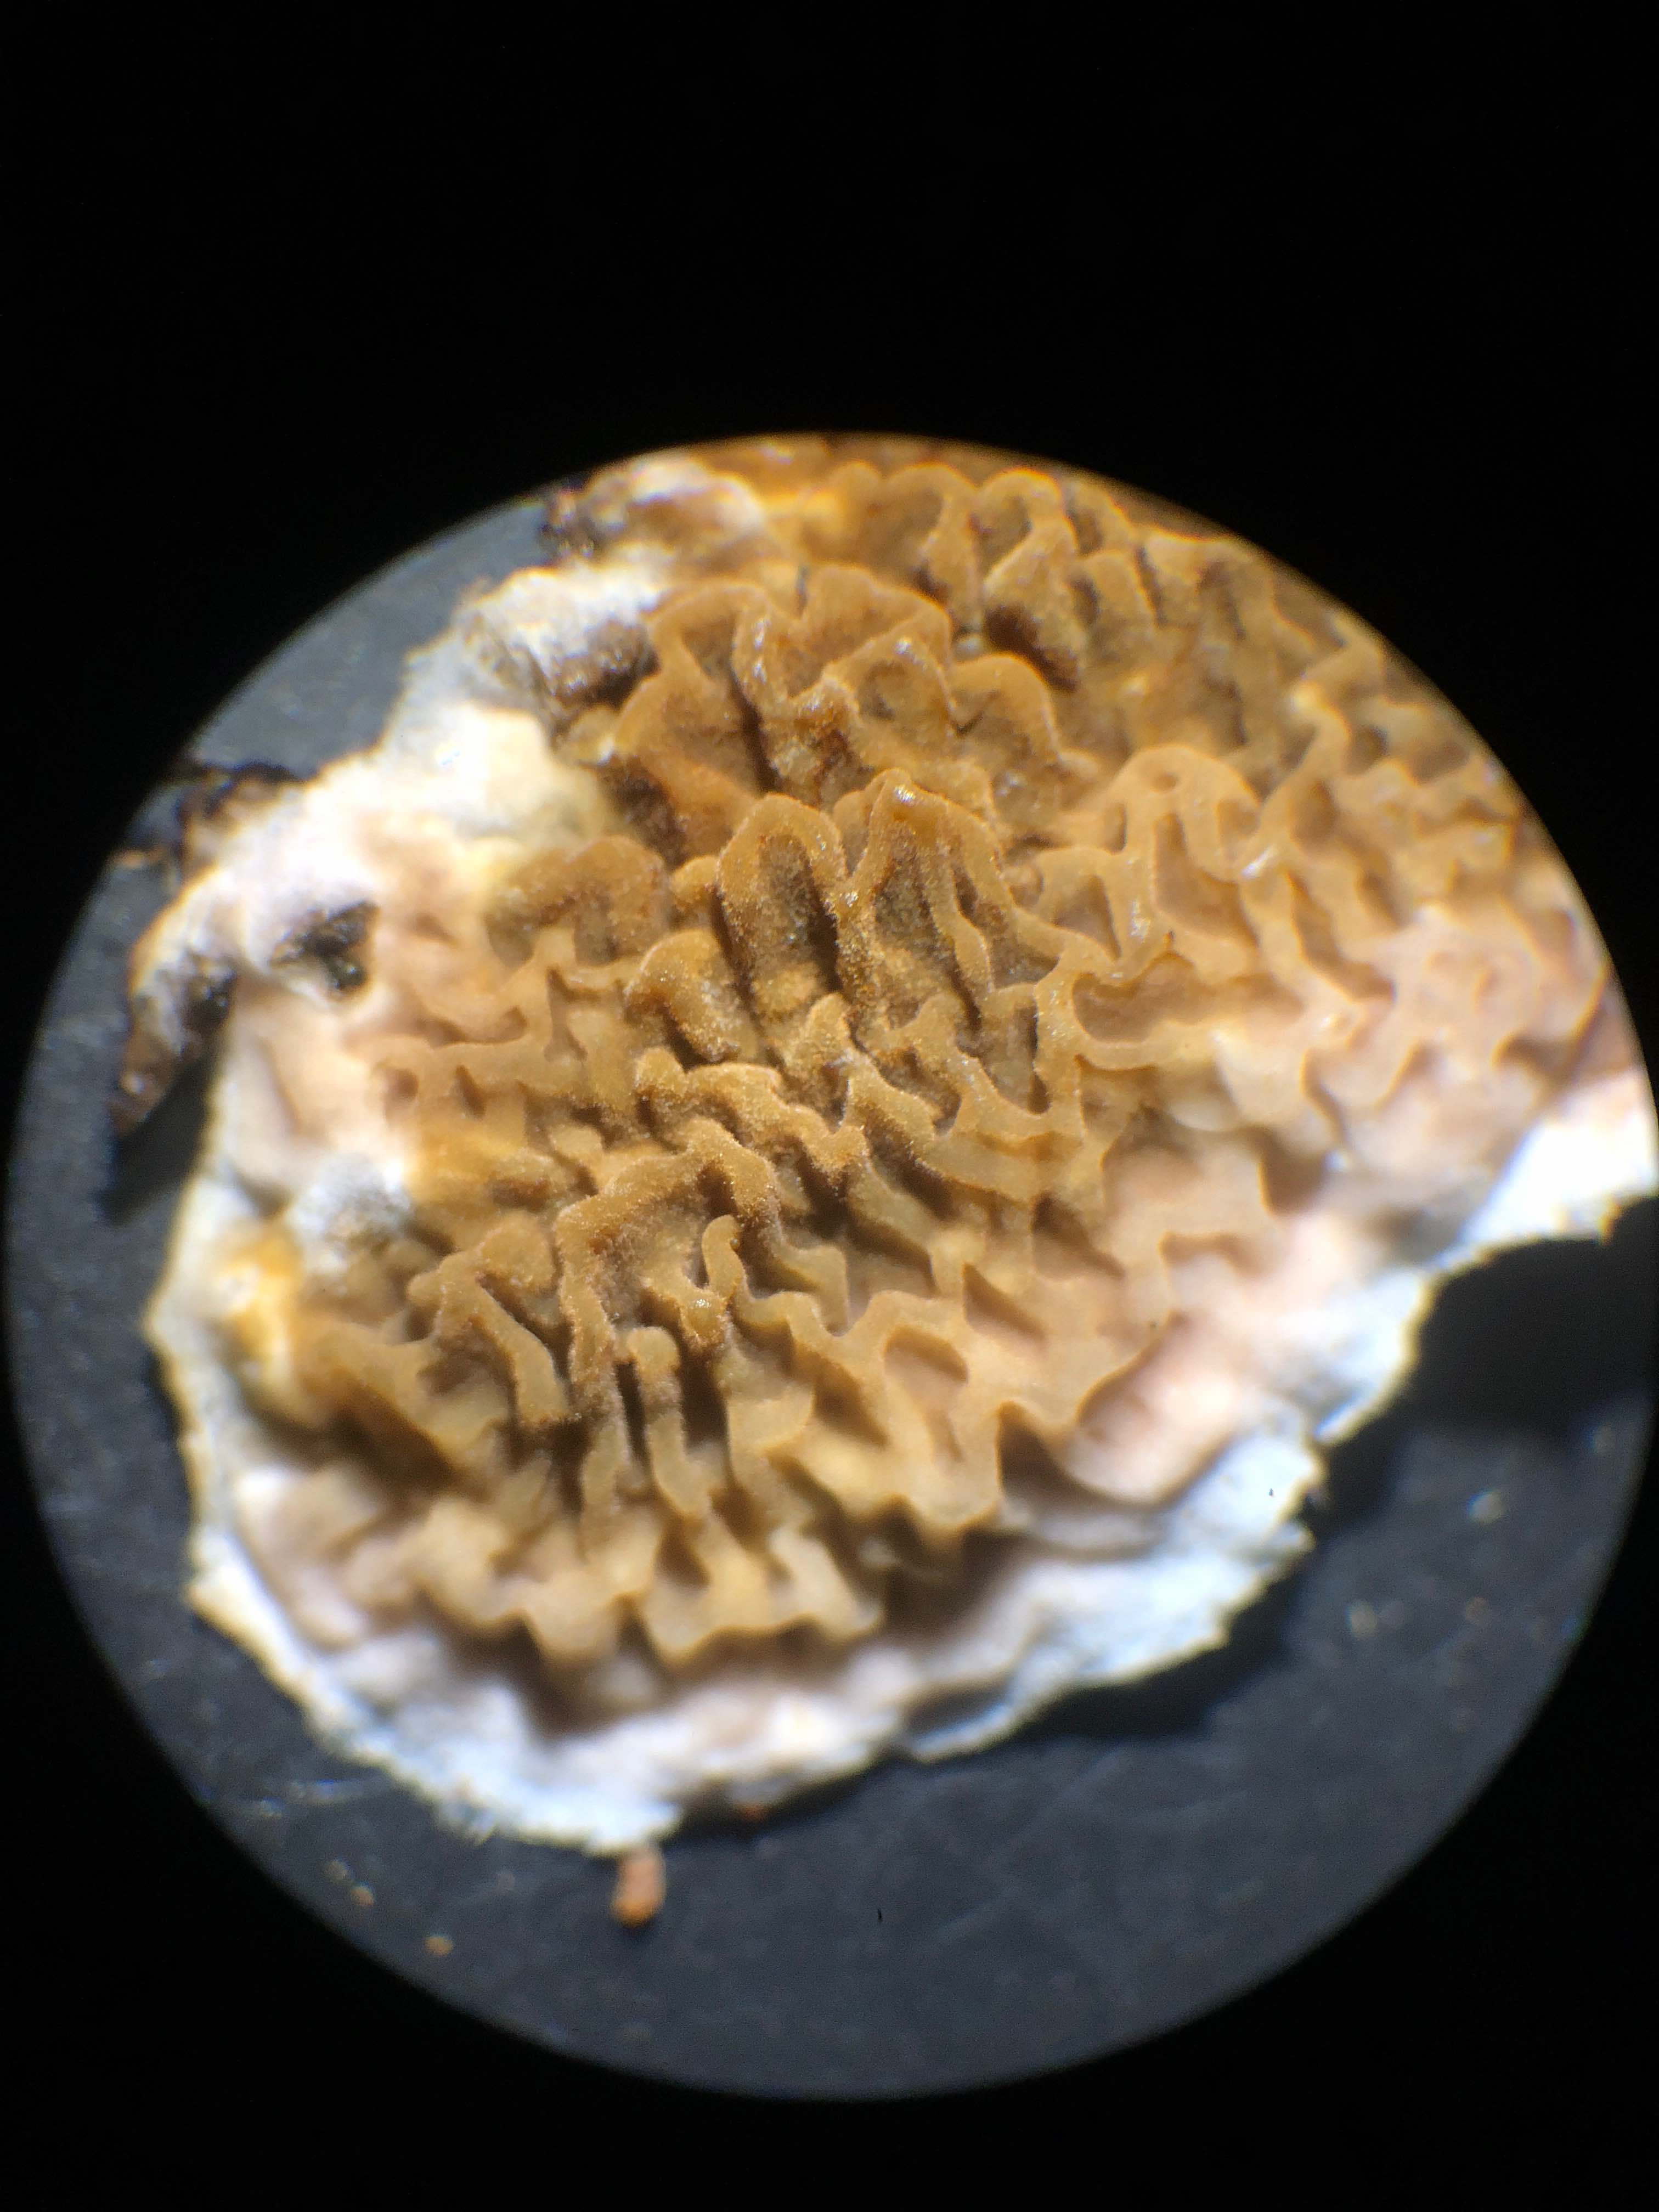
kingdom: Fungi
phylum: Basidiomycota
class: Agaricomycetes
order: Boletales
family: Serpulaceae
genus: Serpula
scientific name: Serpula himantioides
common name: tyndkødet hussvamp
